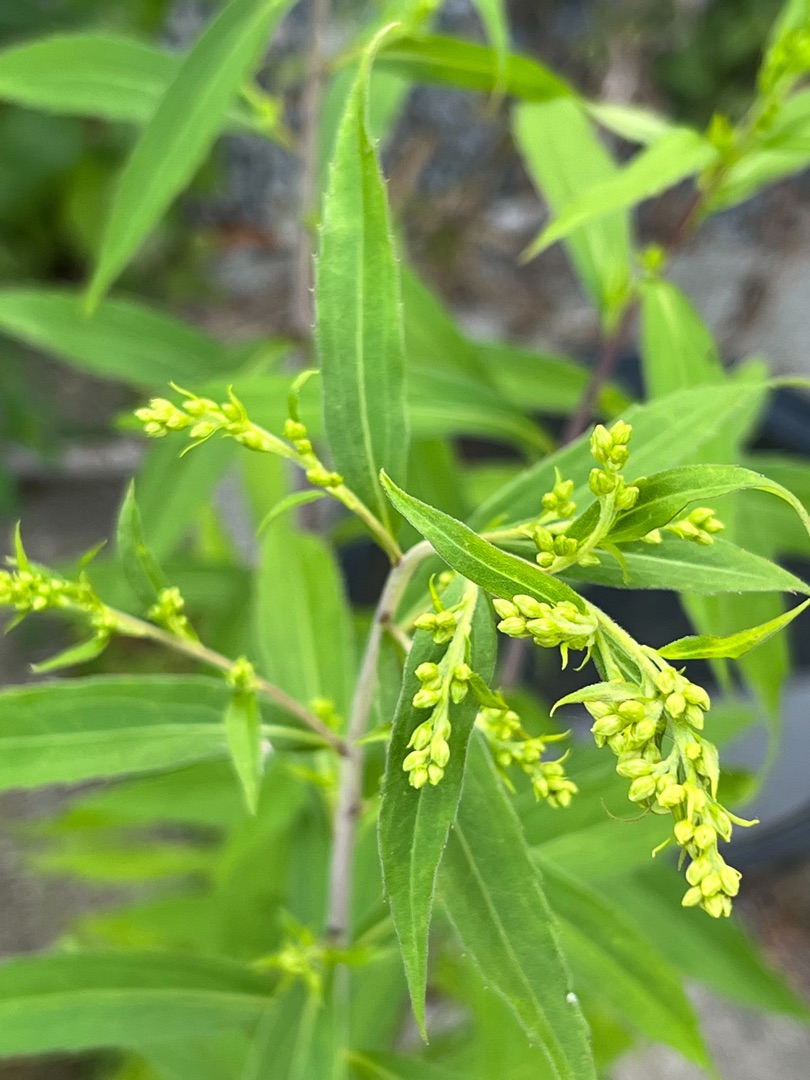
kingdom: Plantae
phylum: Tracheophyta
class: Magnoliopsida
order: Asterales
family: Asteraceae
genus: Solidago
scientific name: Solidago gigantea
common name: Sildig gyldenris
